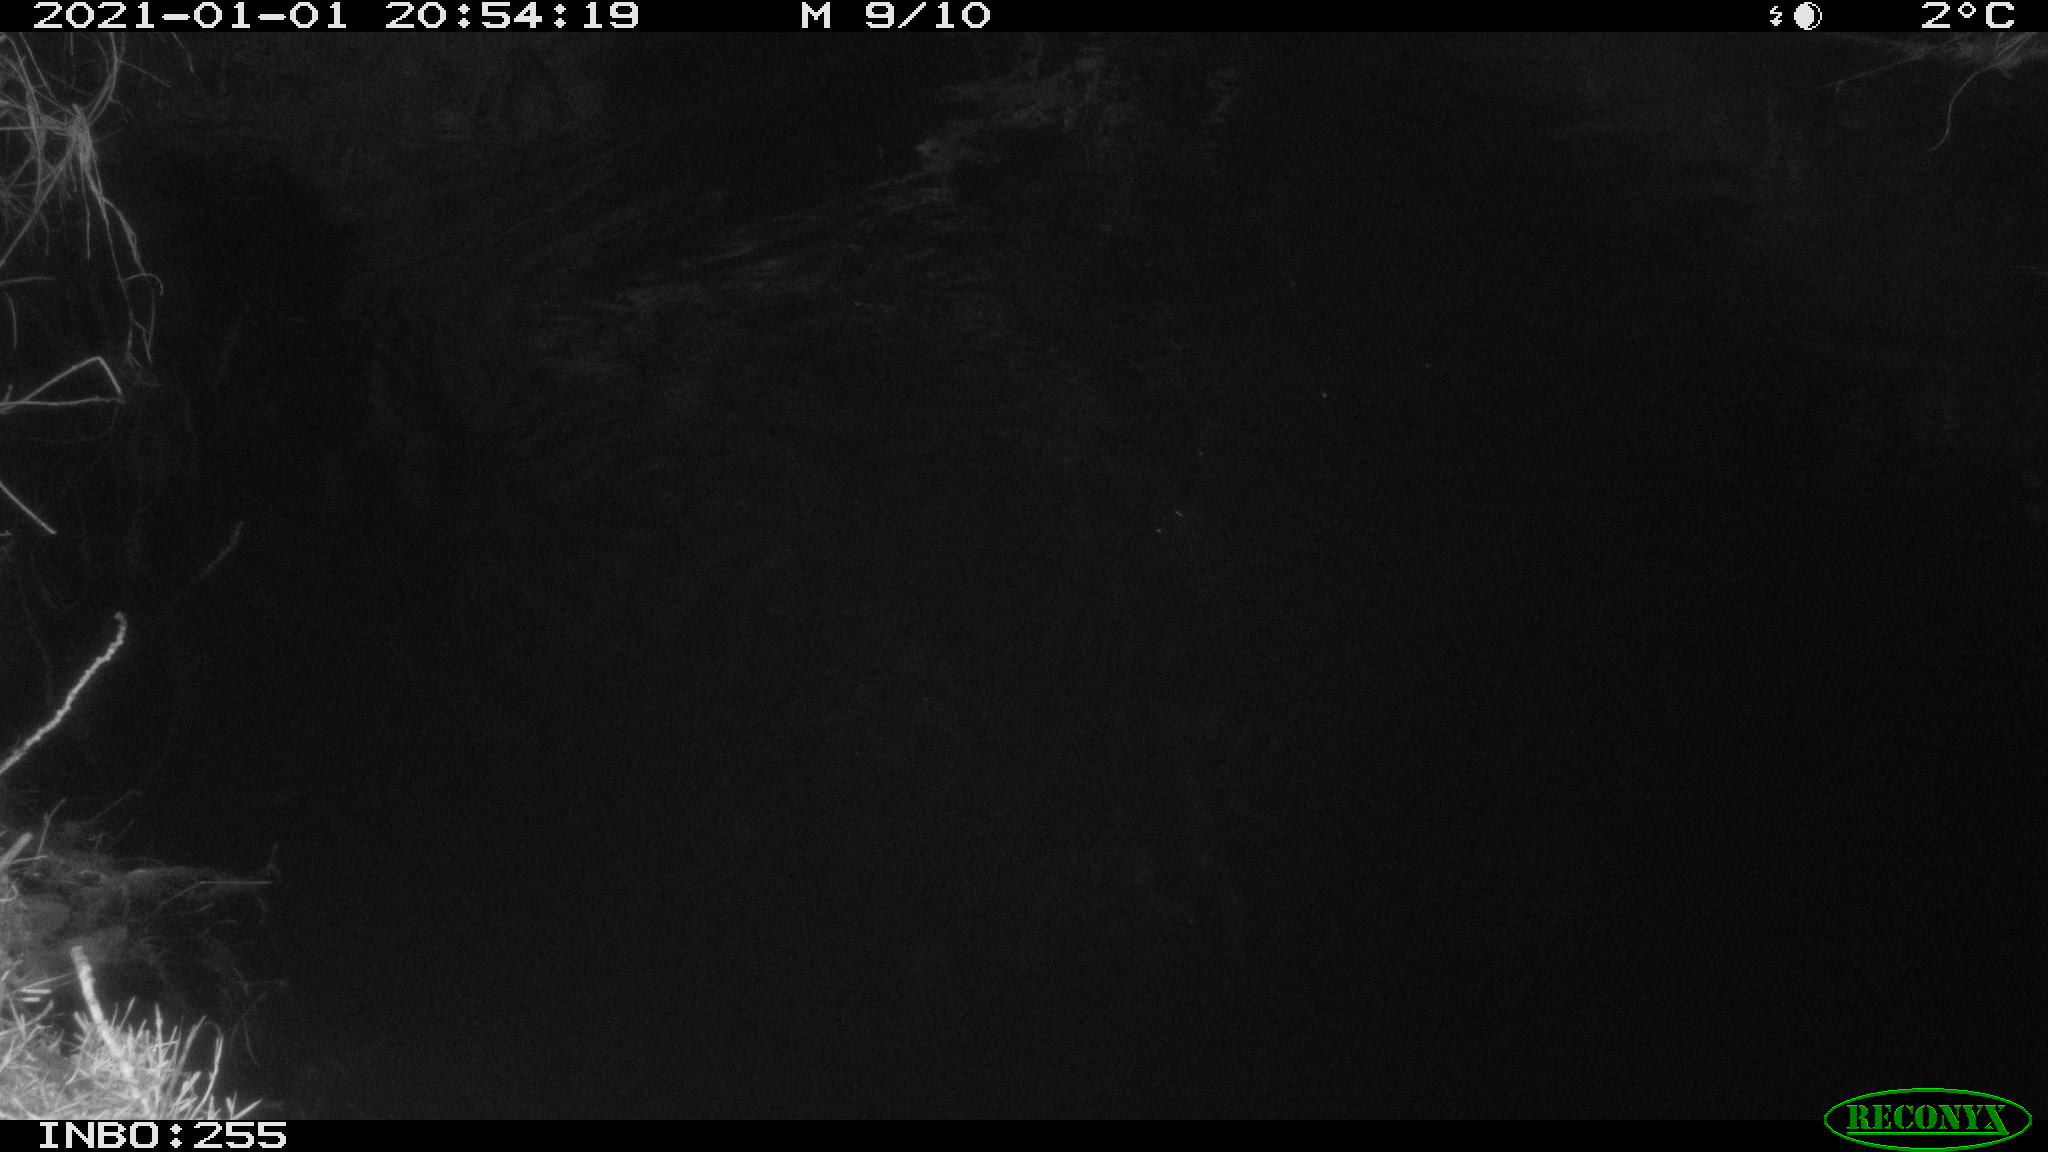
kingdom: Animalia
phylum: Chordata
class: Aves
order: Anseriformes
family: Anatidae
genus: Anas
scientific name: Anas platyrhynchos
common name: Mallard
